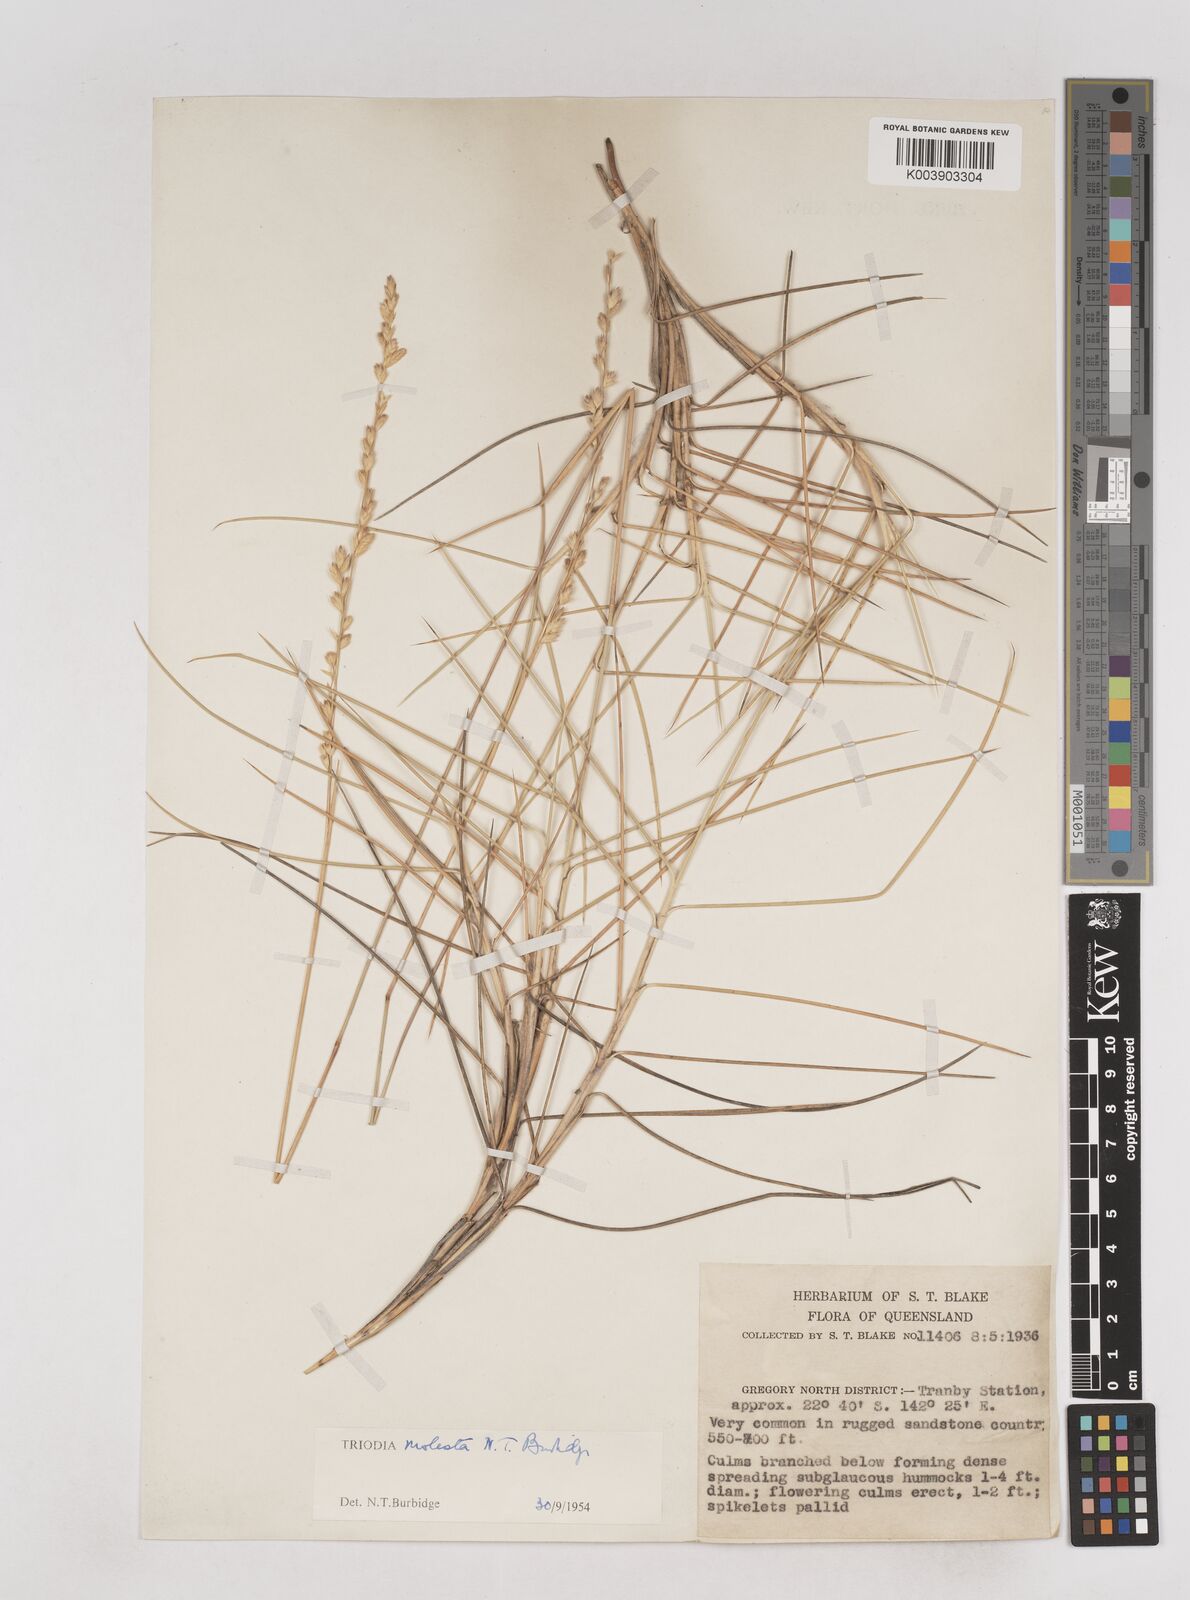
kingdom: Plantae
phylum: Tracheophyta
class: Liliopsida
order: Poales
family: Poaceae
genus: Triodia
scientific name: Triodia molesta
